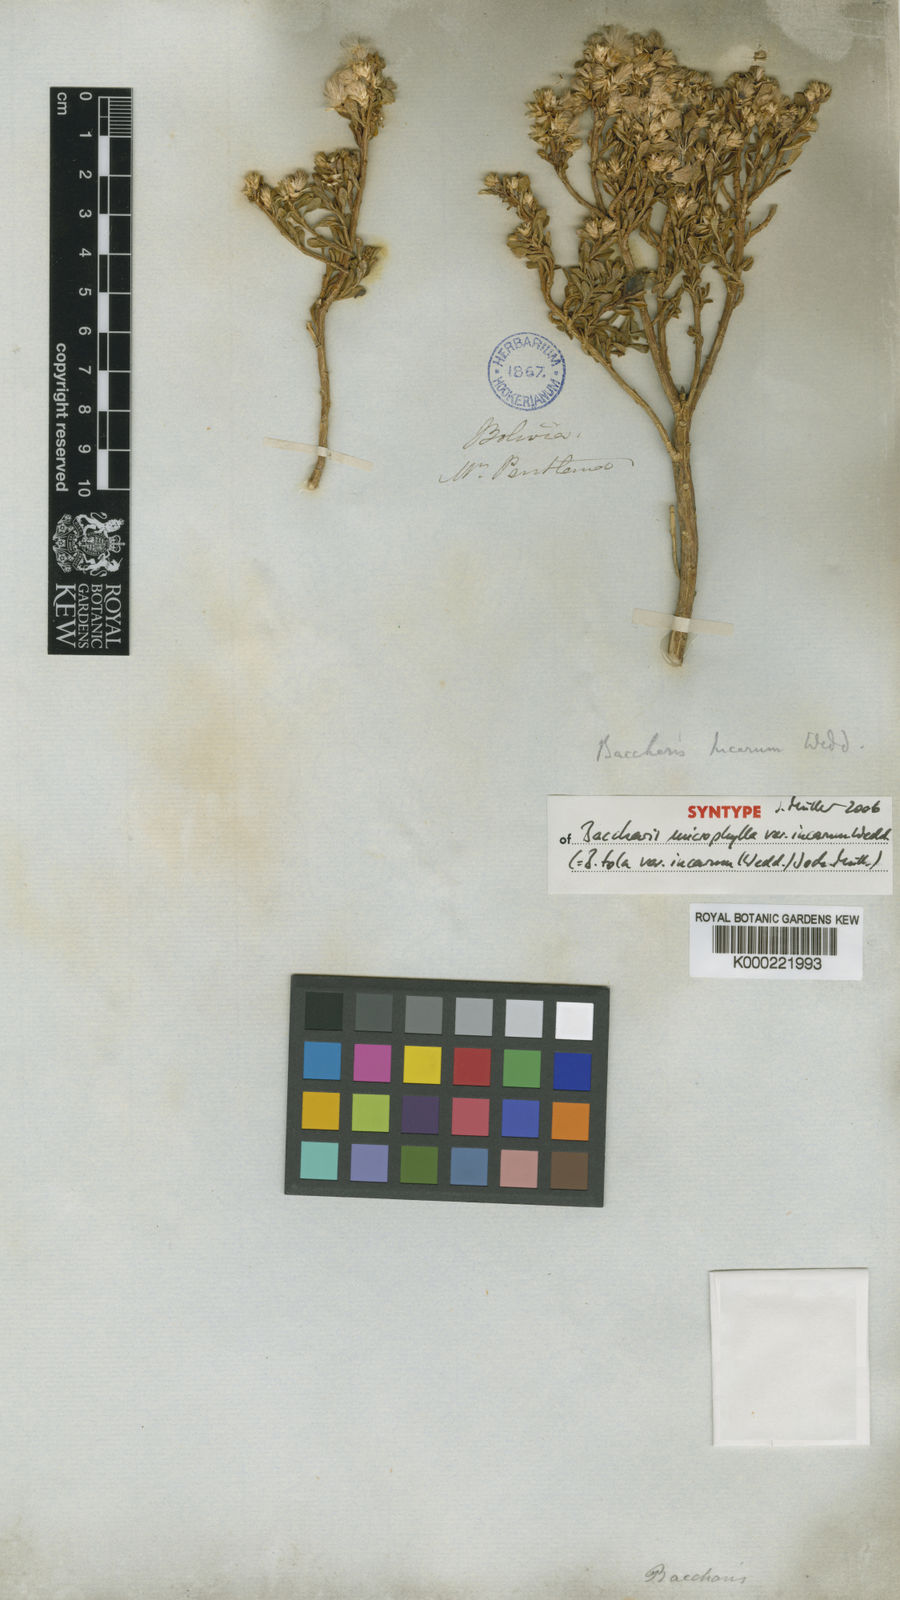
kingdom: Plantae
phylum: Tracheophyta
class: Magnoliopsida
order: Asterales
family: Asteraceae
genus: Baccharis
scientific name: Baccharis tola
